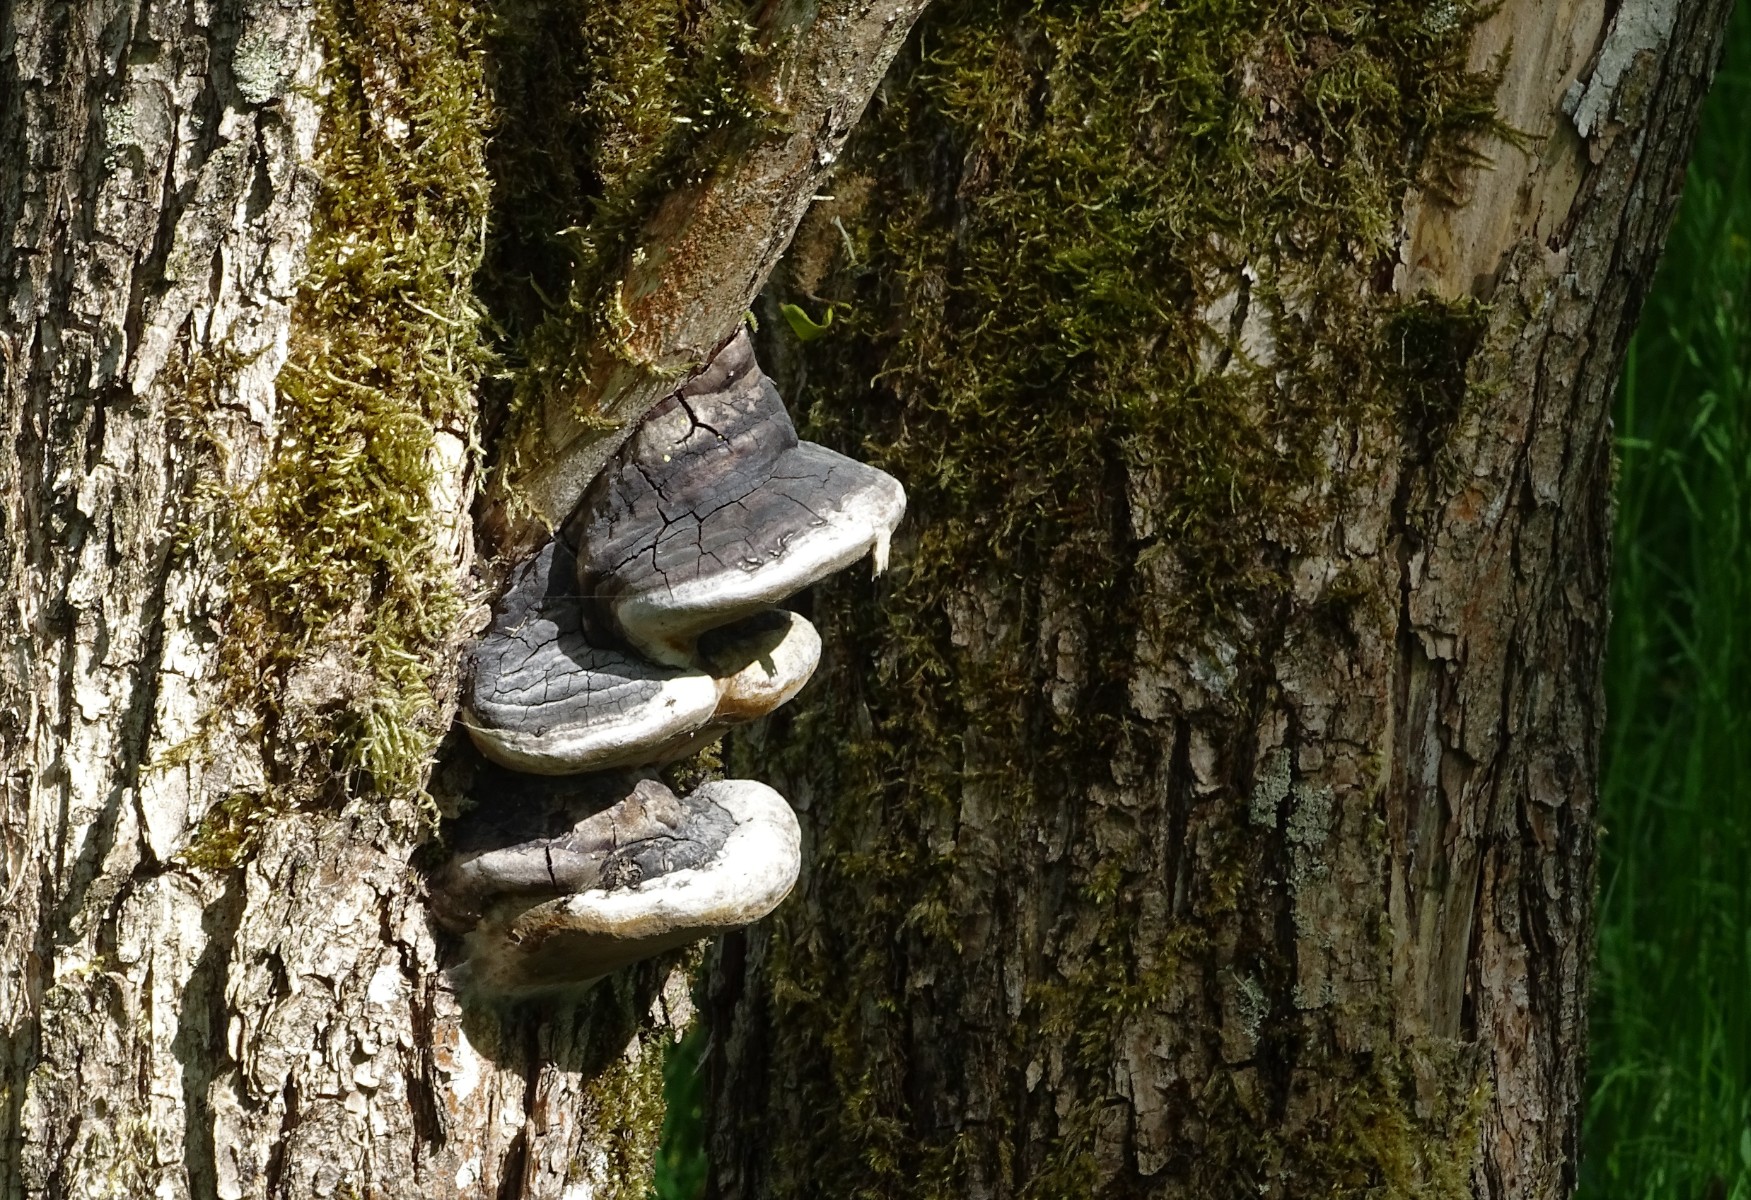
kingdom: Fungi
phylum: Basidiomycota
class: Agaricomycetes
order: Hymenochaetales
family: Hymenochaetaceae
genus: Phellinus
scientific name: Phellinus igniarius
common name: almindelig ildporesvamp
